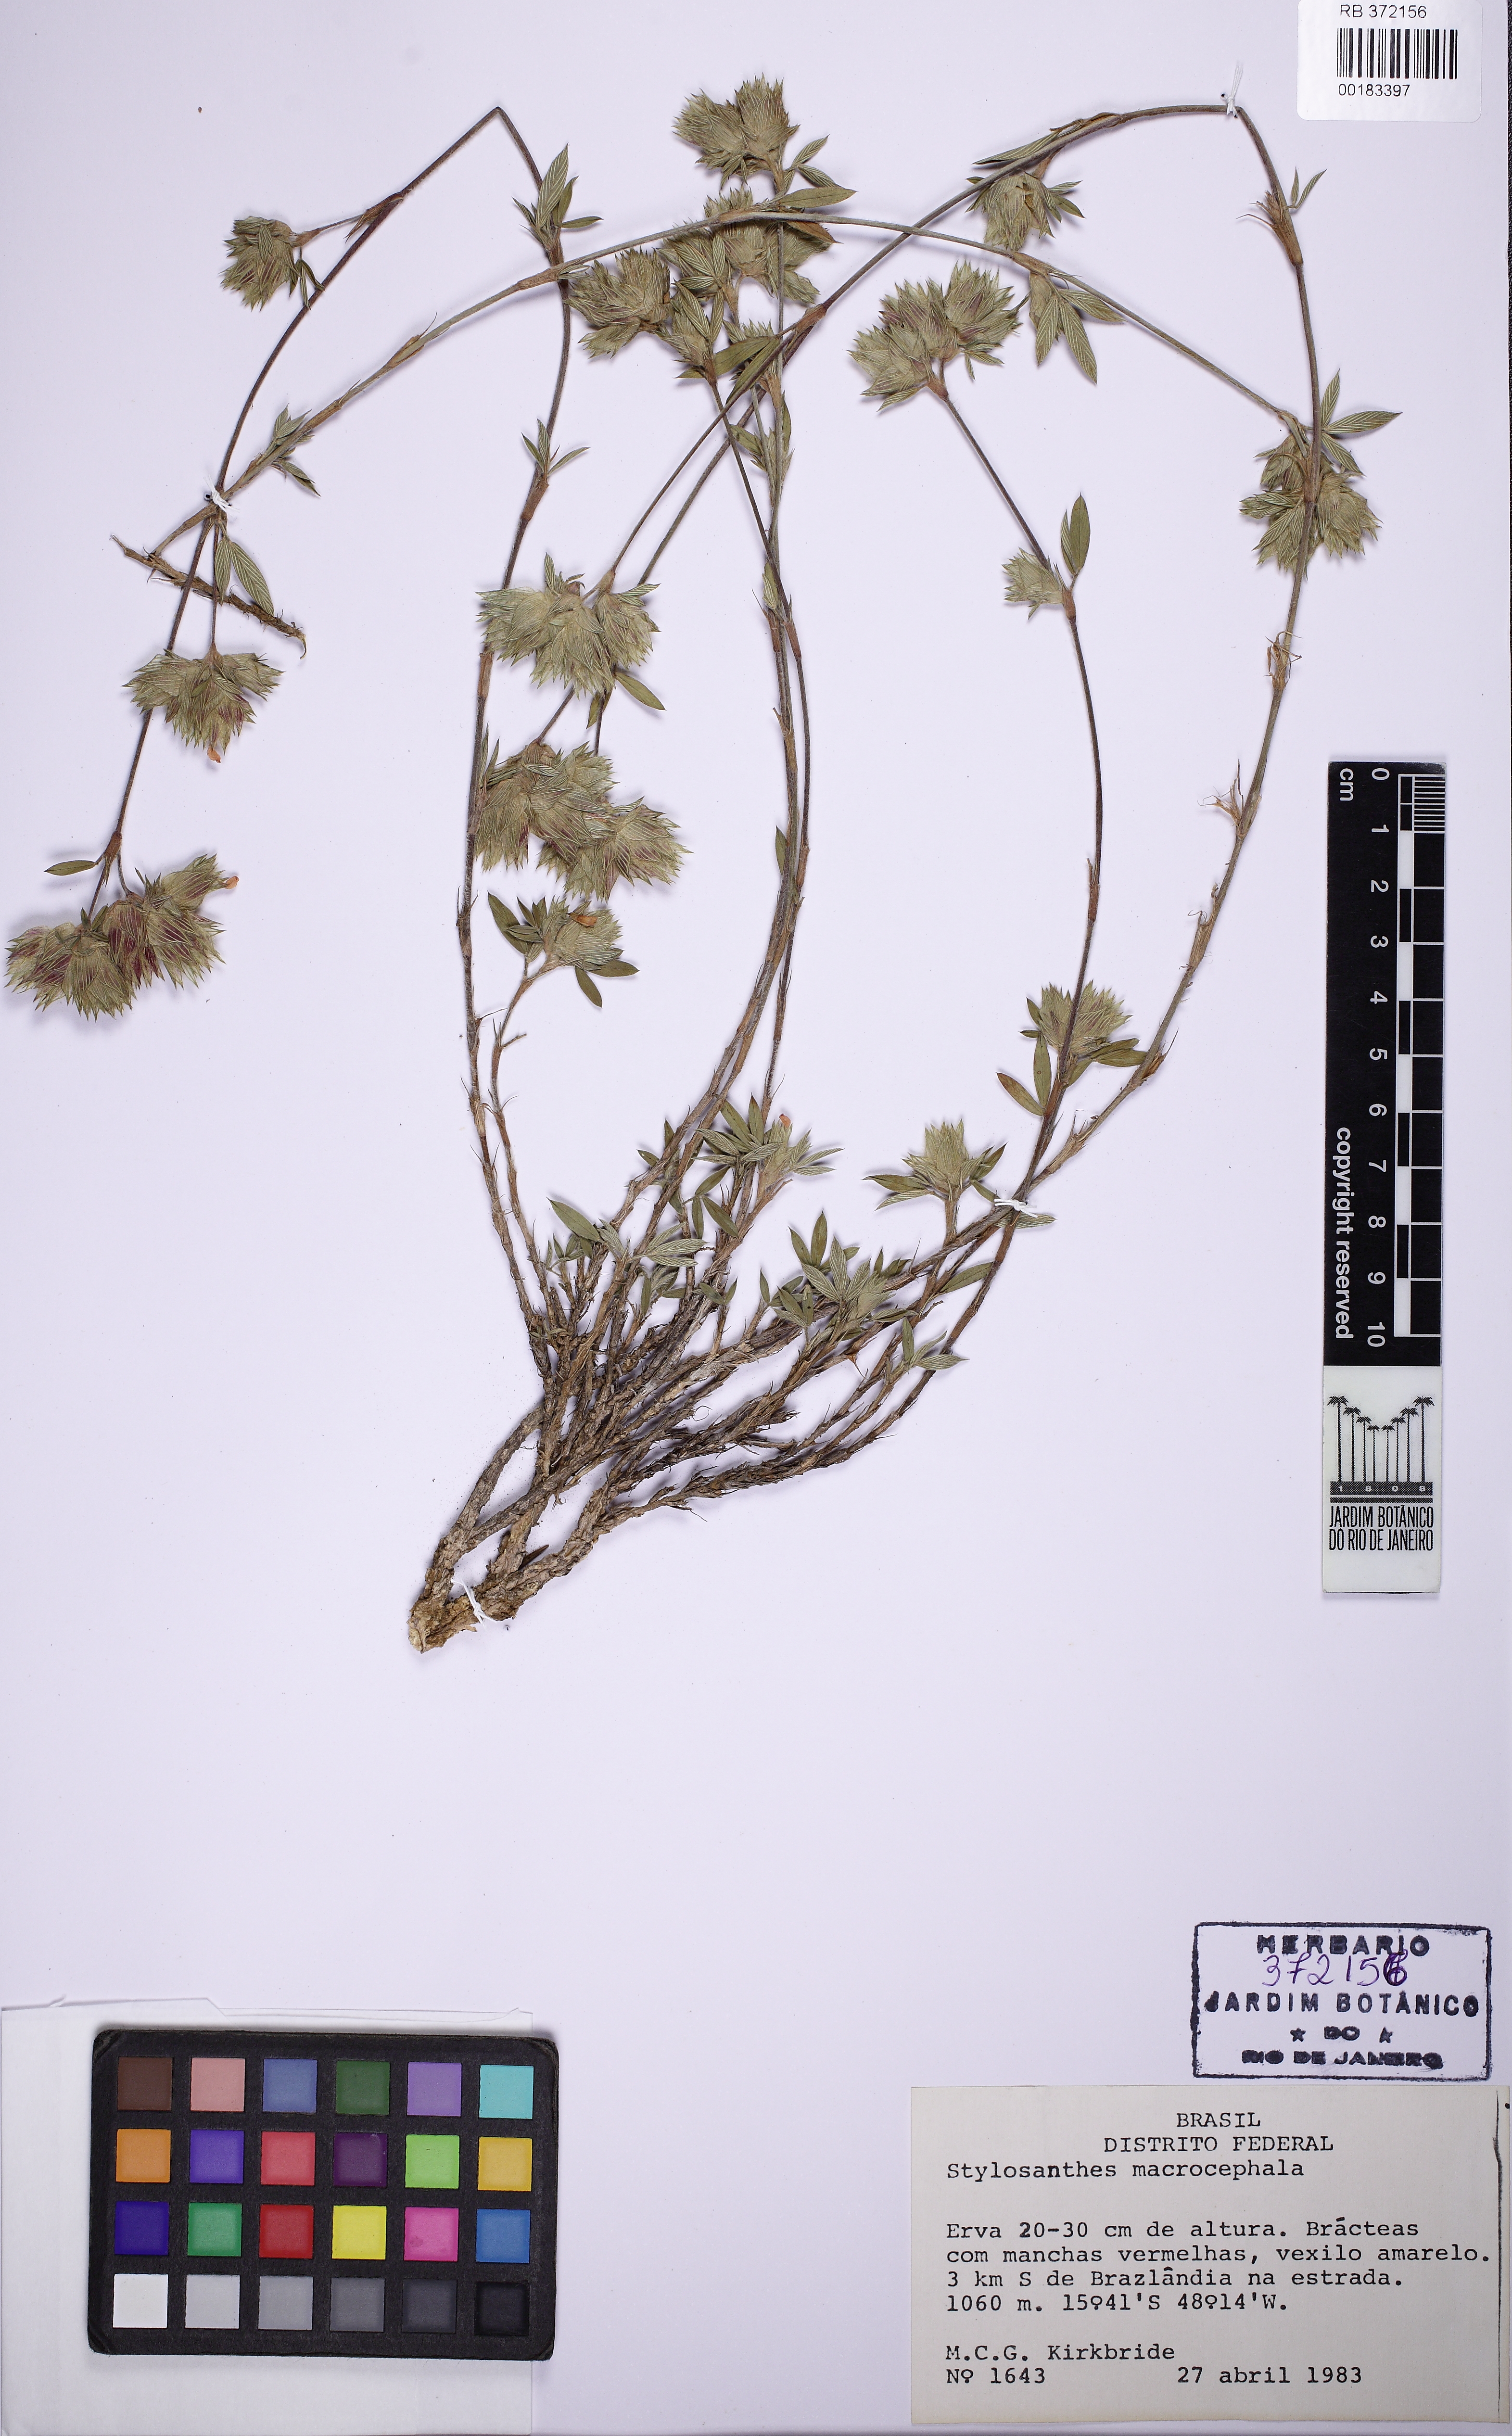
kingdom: Plantae
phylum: Tracheophyta
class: Magnoliopsida
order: Fabales
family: Fabaceae
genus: Stylosanthes
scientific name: Stylosanthes macrocephala
